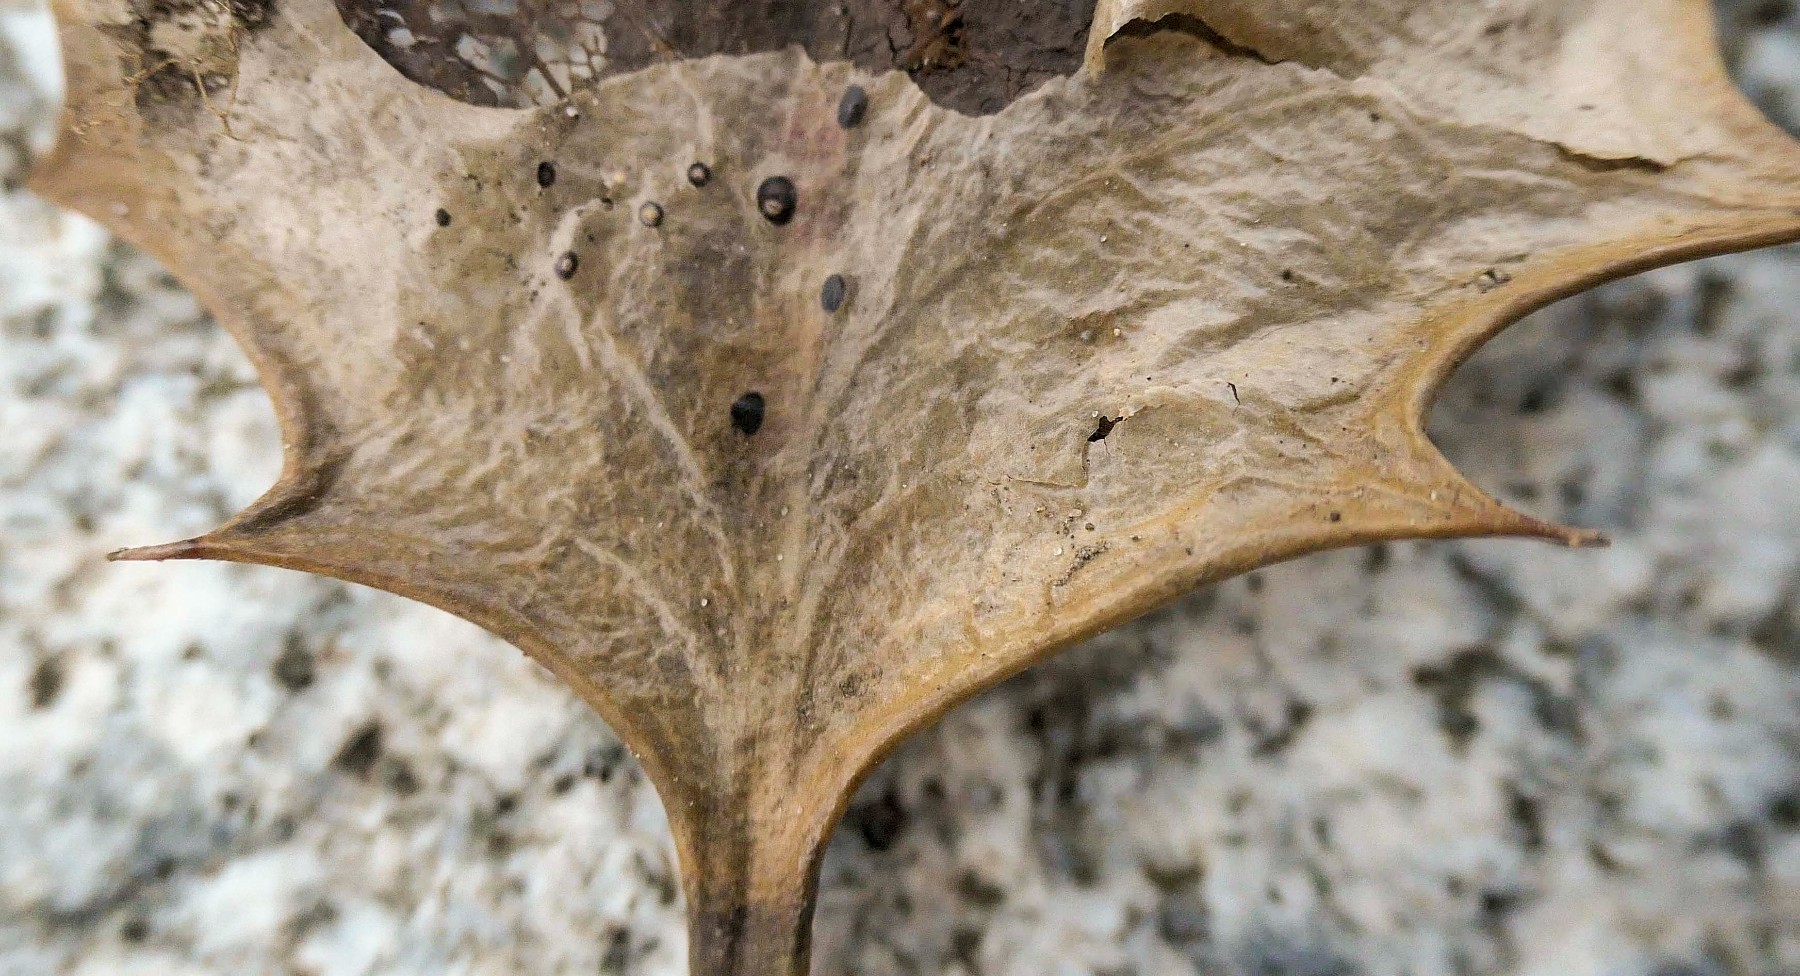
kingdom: Fungi
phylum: Ascomycota
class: Leotiomycetes
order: Phacidiales
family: Phacidiaceae
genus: Phacidium
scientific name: Phacidium lauri
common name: kristtorn-tandskive
